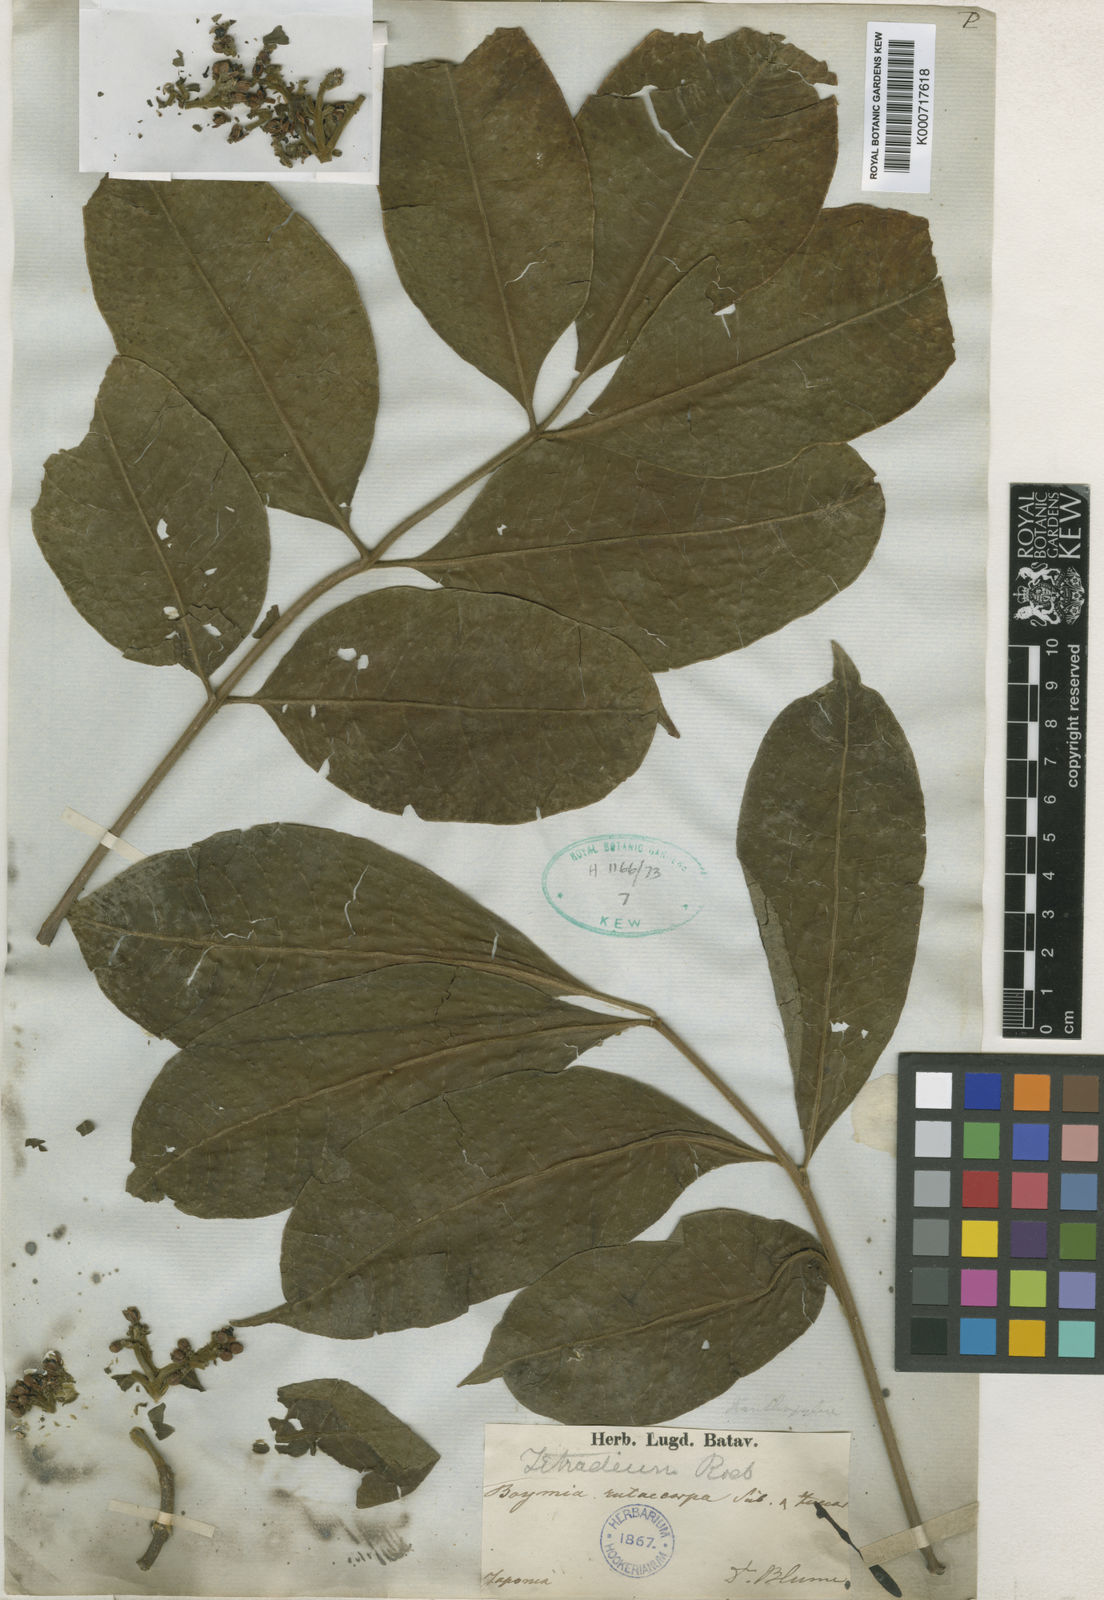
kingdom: Plantae
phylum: Tracheophyta
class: Magnoliopsida
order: Sapindales
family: Rutaceae
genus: Tetradium
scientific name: Tetradium ruticarpum
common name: Evodia
